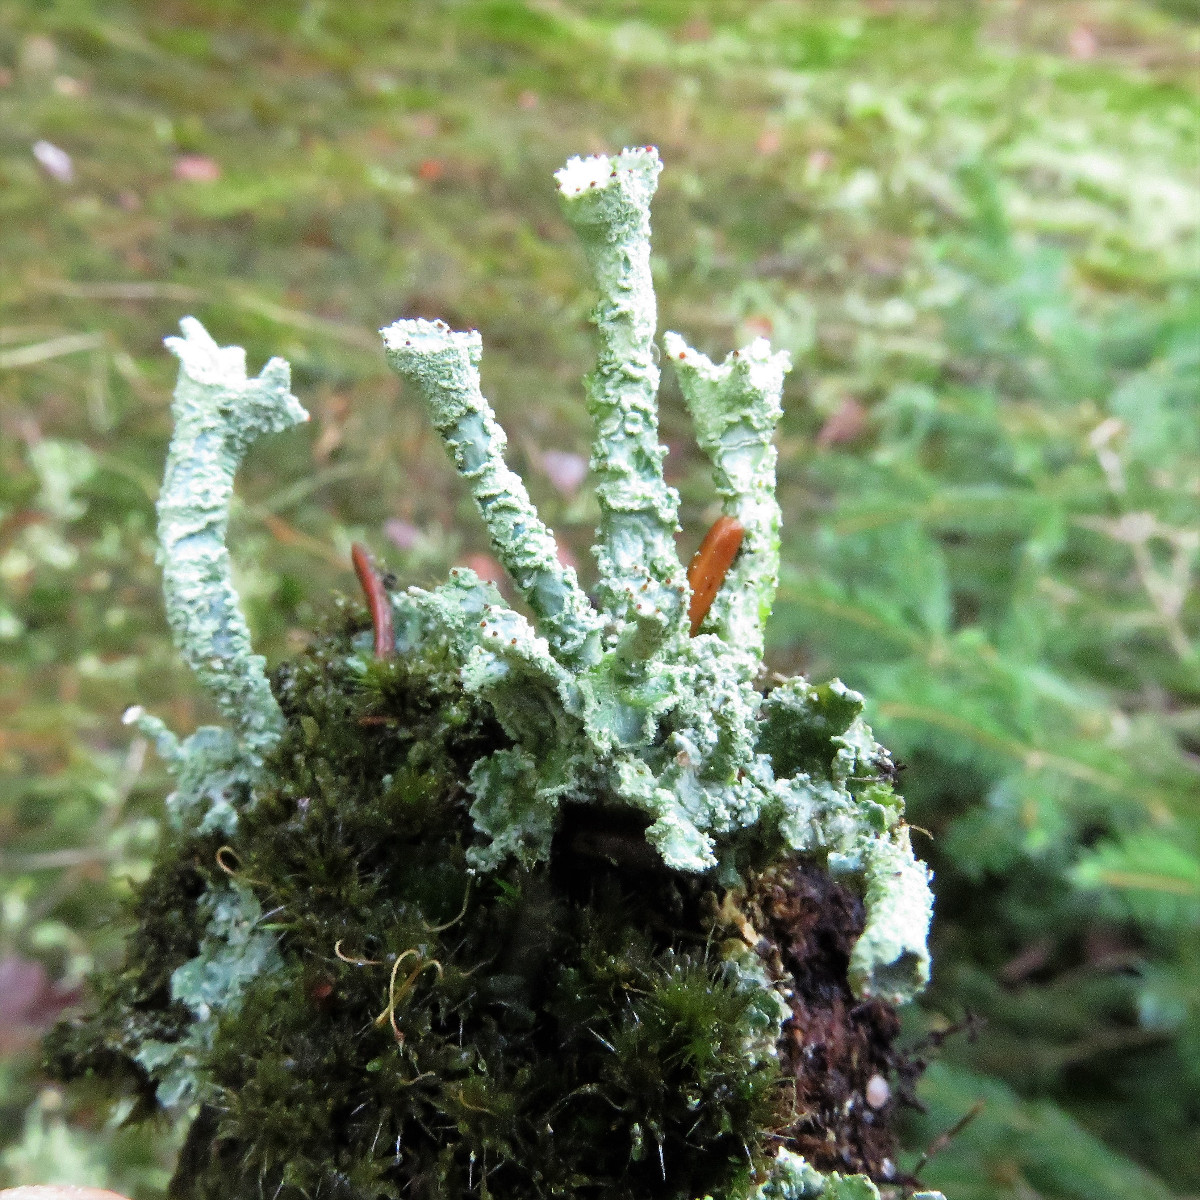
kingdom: Fungi
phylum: Ascomycota
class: Lecanoromycetes
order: Lecanorales
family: Cladoniaceae
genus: Cladonia
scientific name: Cladonia digitata
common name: finger-bægerlav
